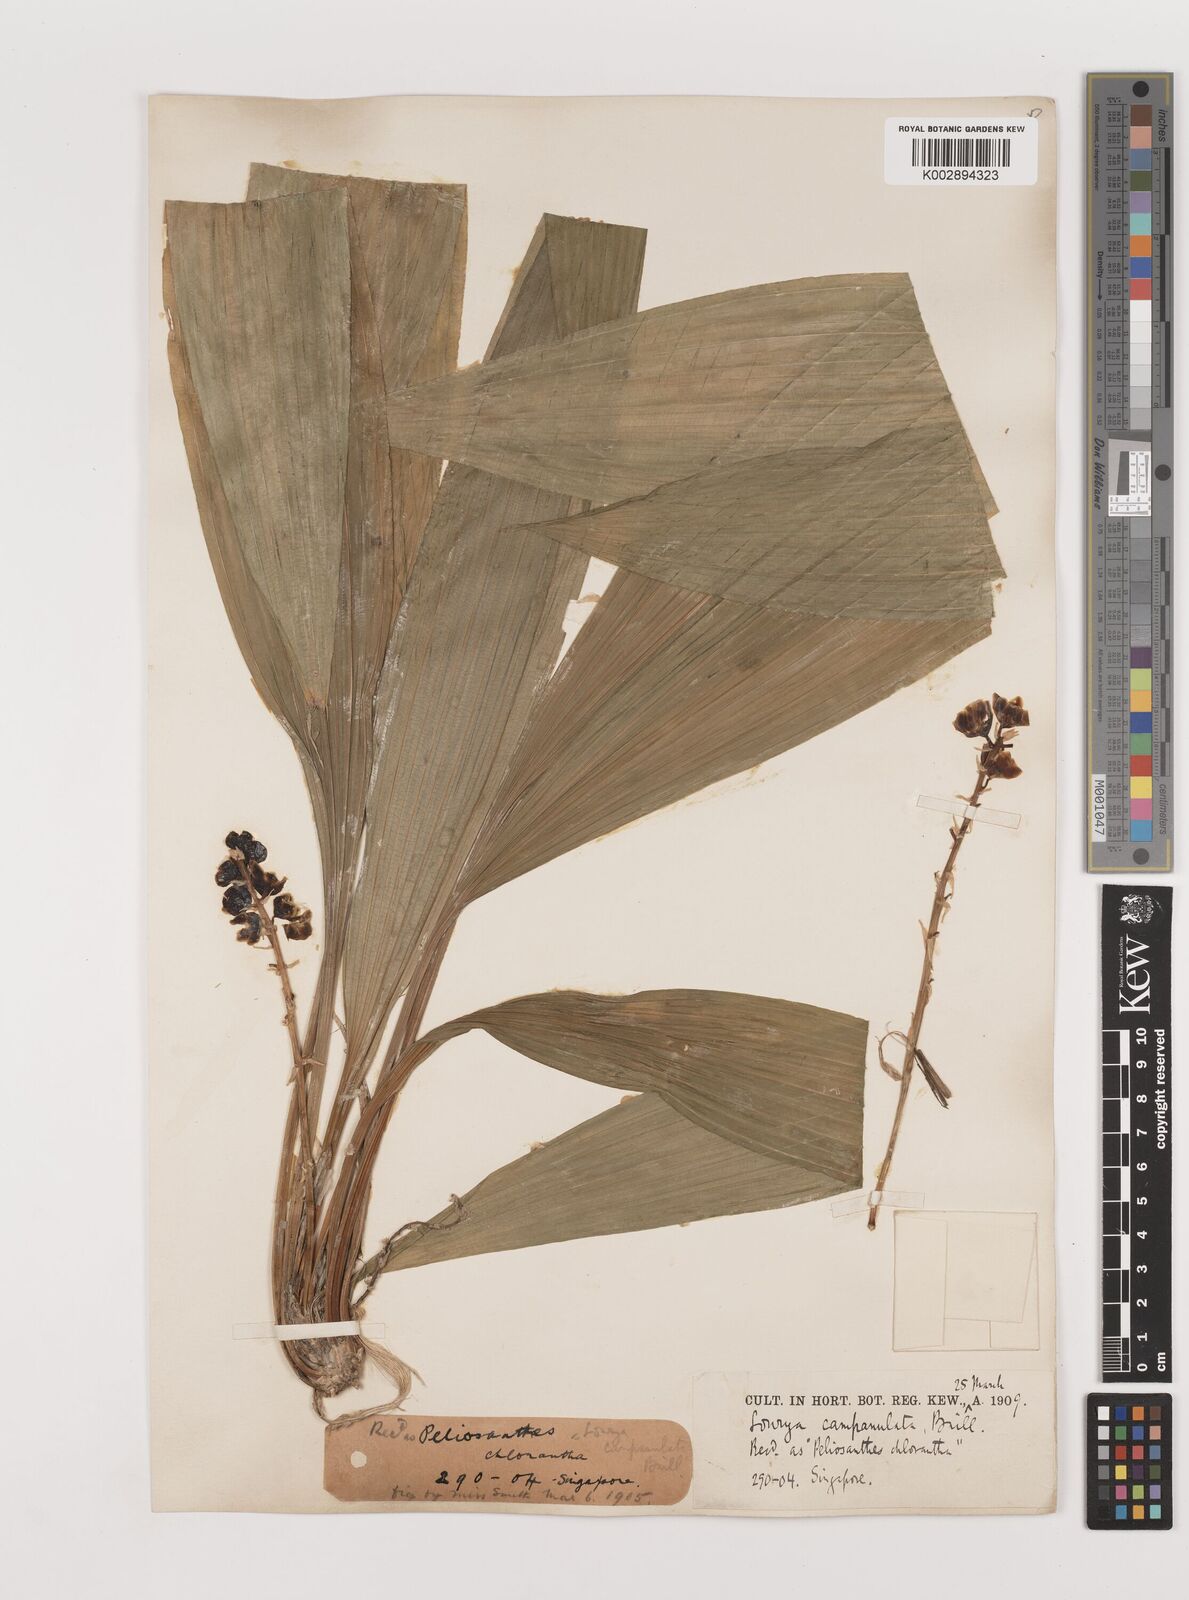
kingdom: Plantae
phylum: Tracheophyta
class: Liliopsida
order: Asparagales
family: Asparagaceae
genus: Peliosanthes
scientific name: Peliosanthes teta
